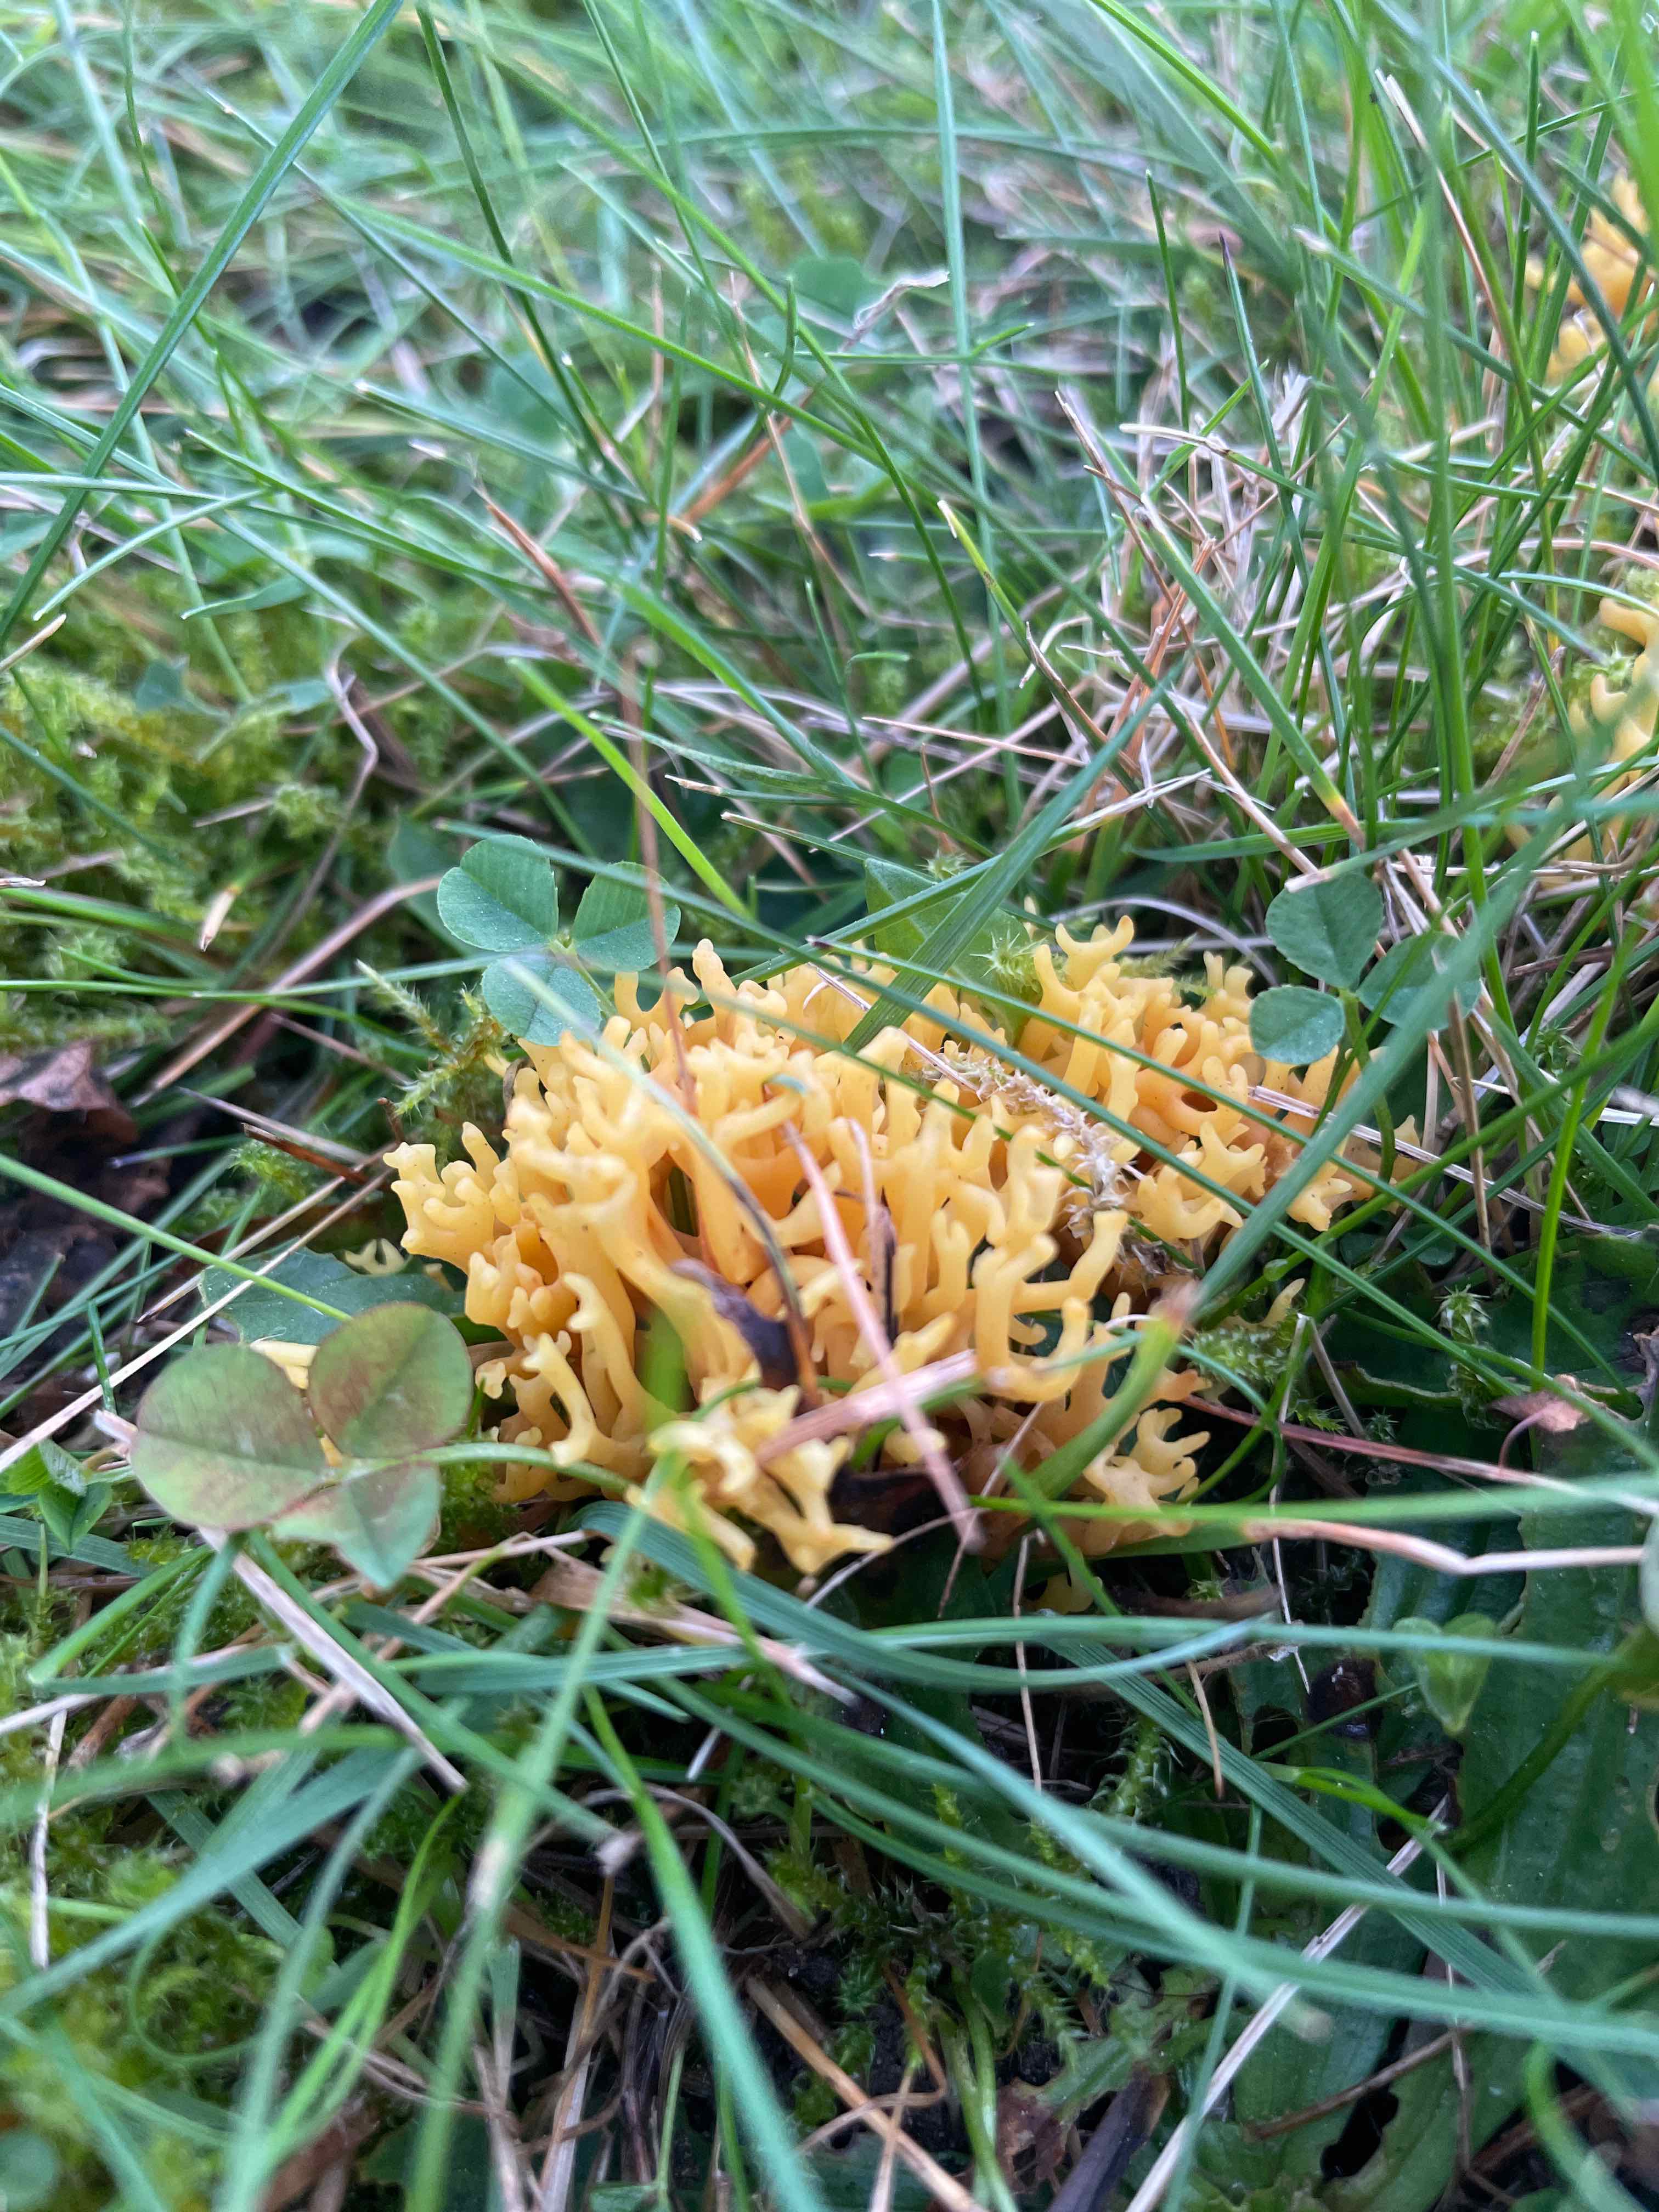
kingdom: Fungi
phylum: Basidiomycota
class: Agaricomycetes
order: Agaricales
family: Clavariaceae
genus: Clavulinopsis
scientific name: Clavulinopsis corniculata
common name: eng-køllesvamp
